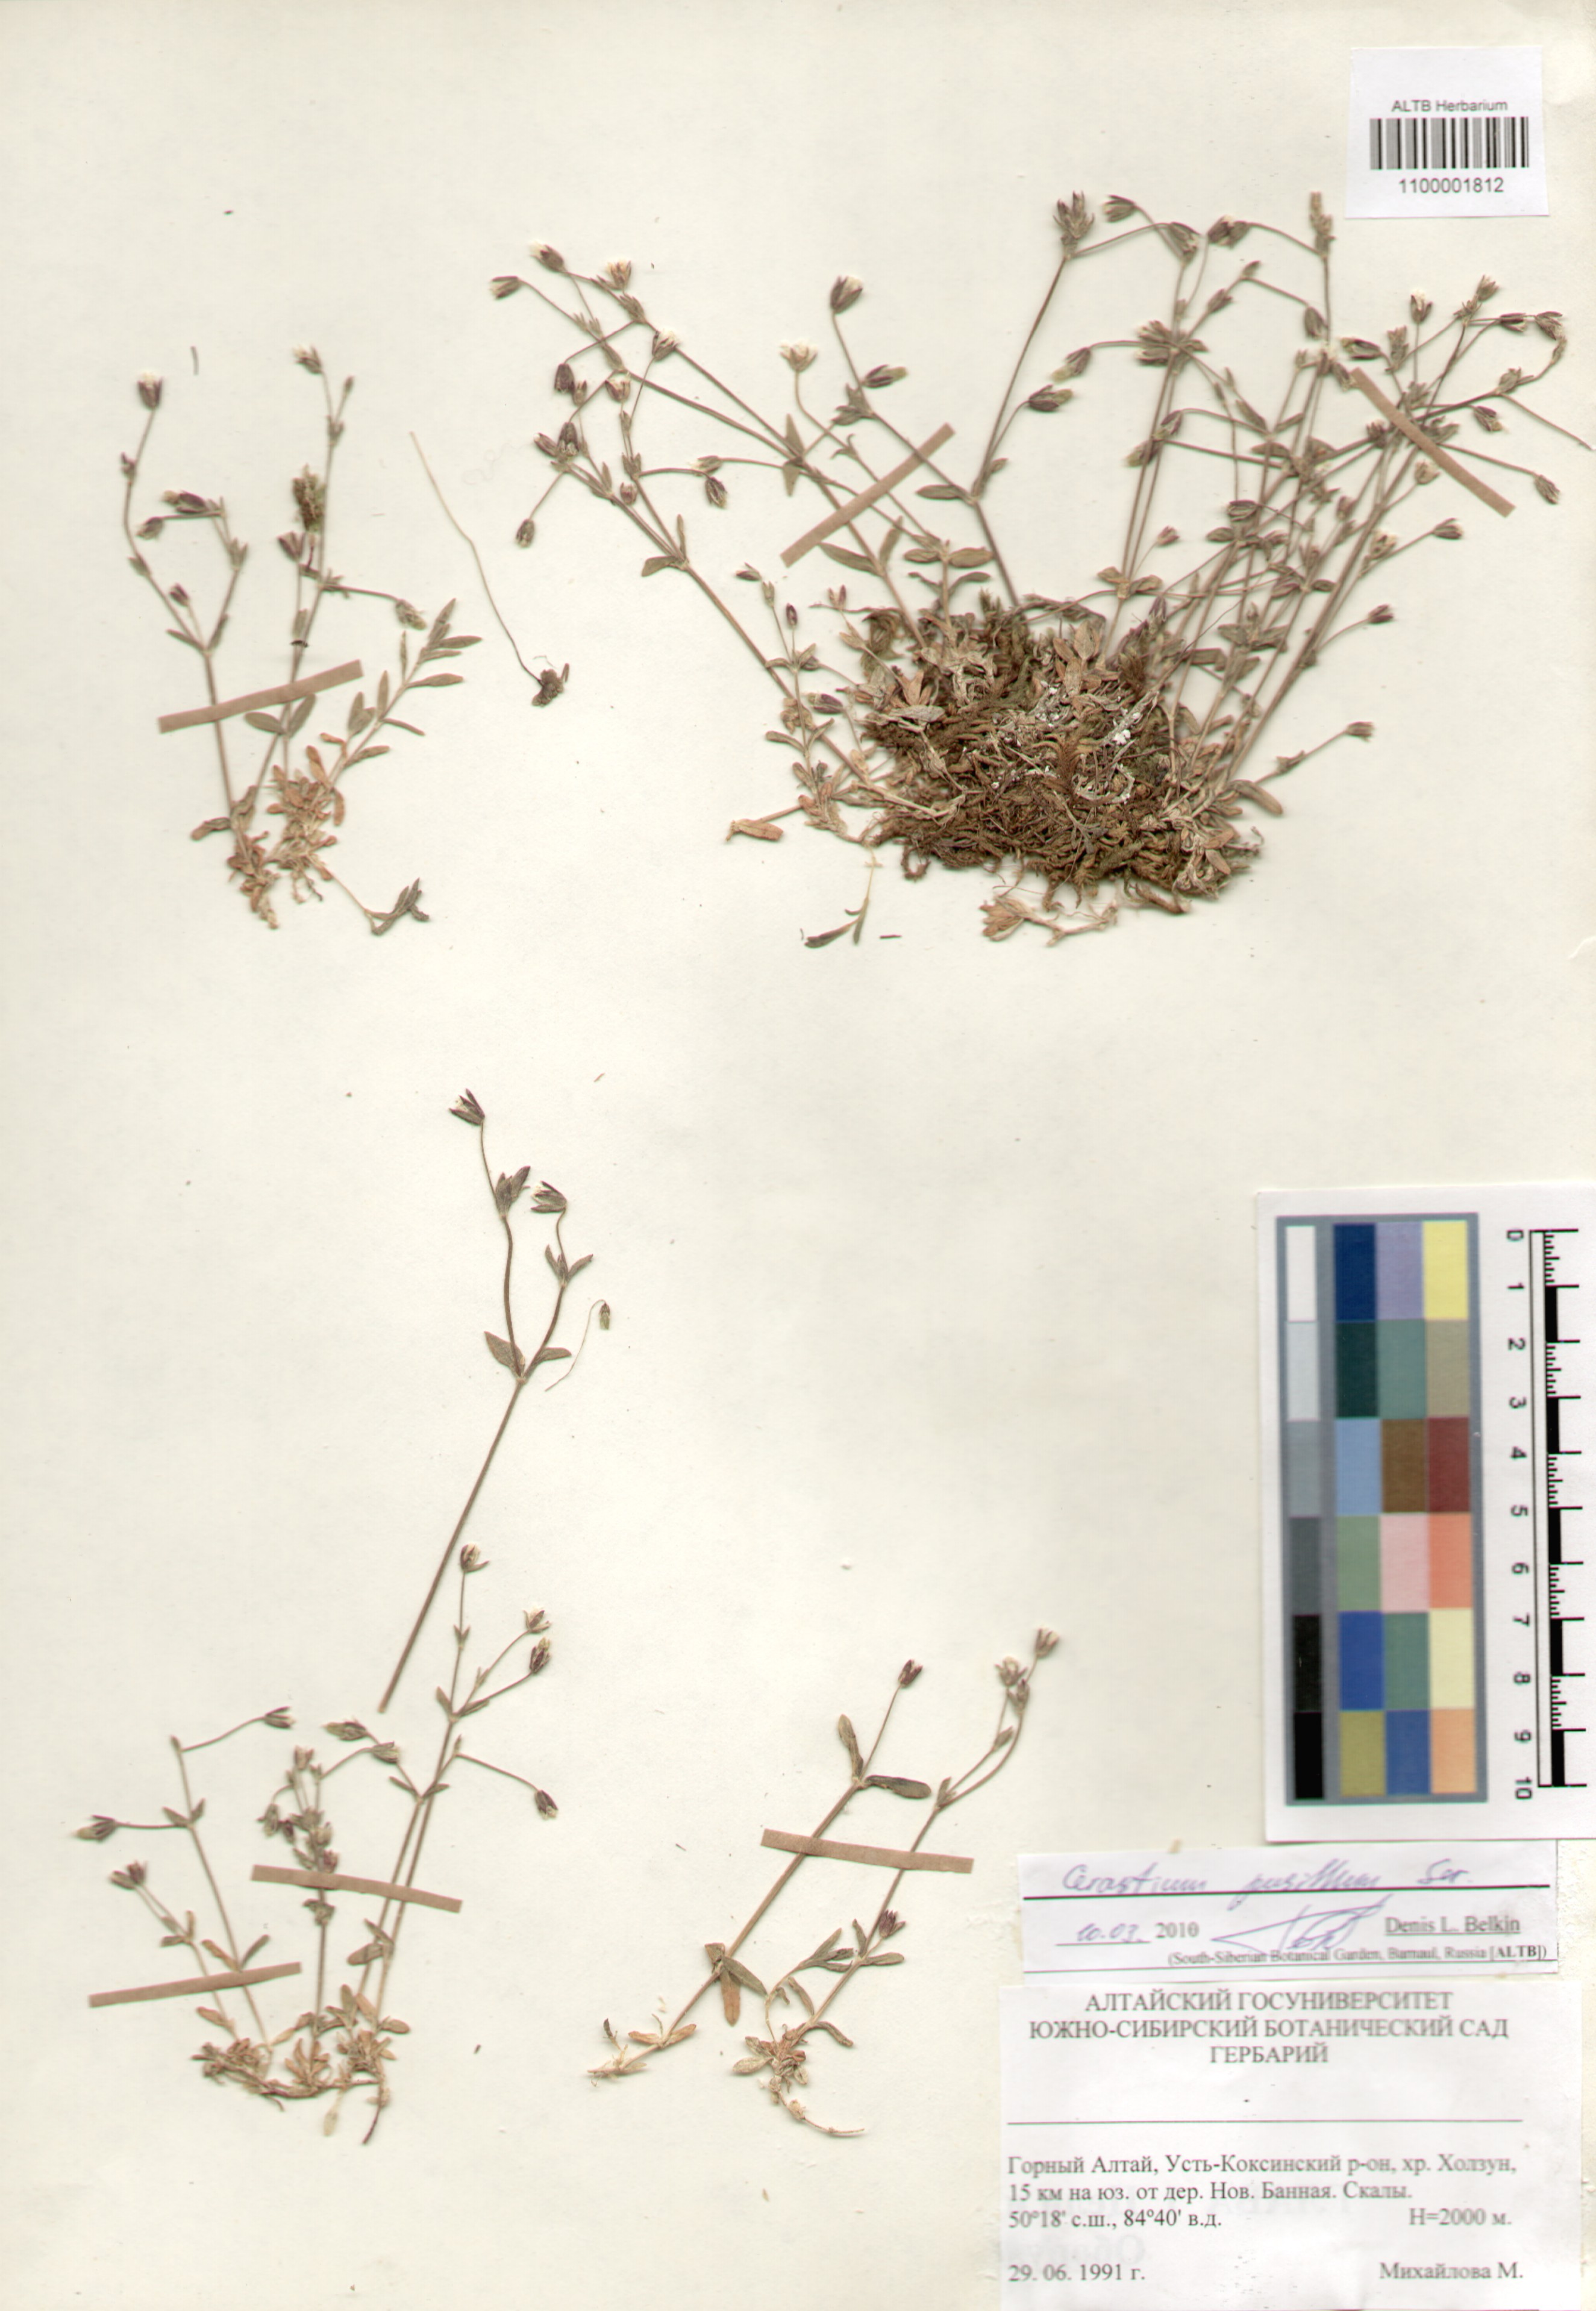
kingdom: Plantae
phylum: Tracheophyta
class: Magnoliopsida
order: Caryophyllales
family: Caryophyllaceae
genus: Cerastium
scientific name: Cerastium pusillum
